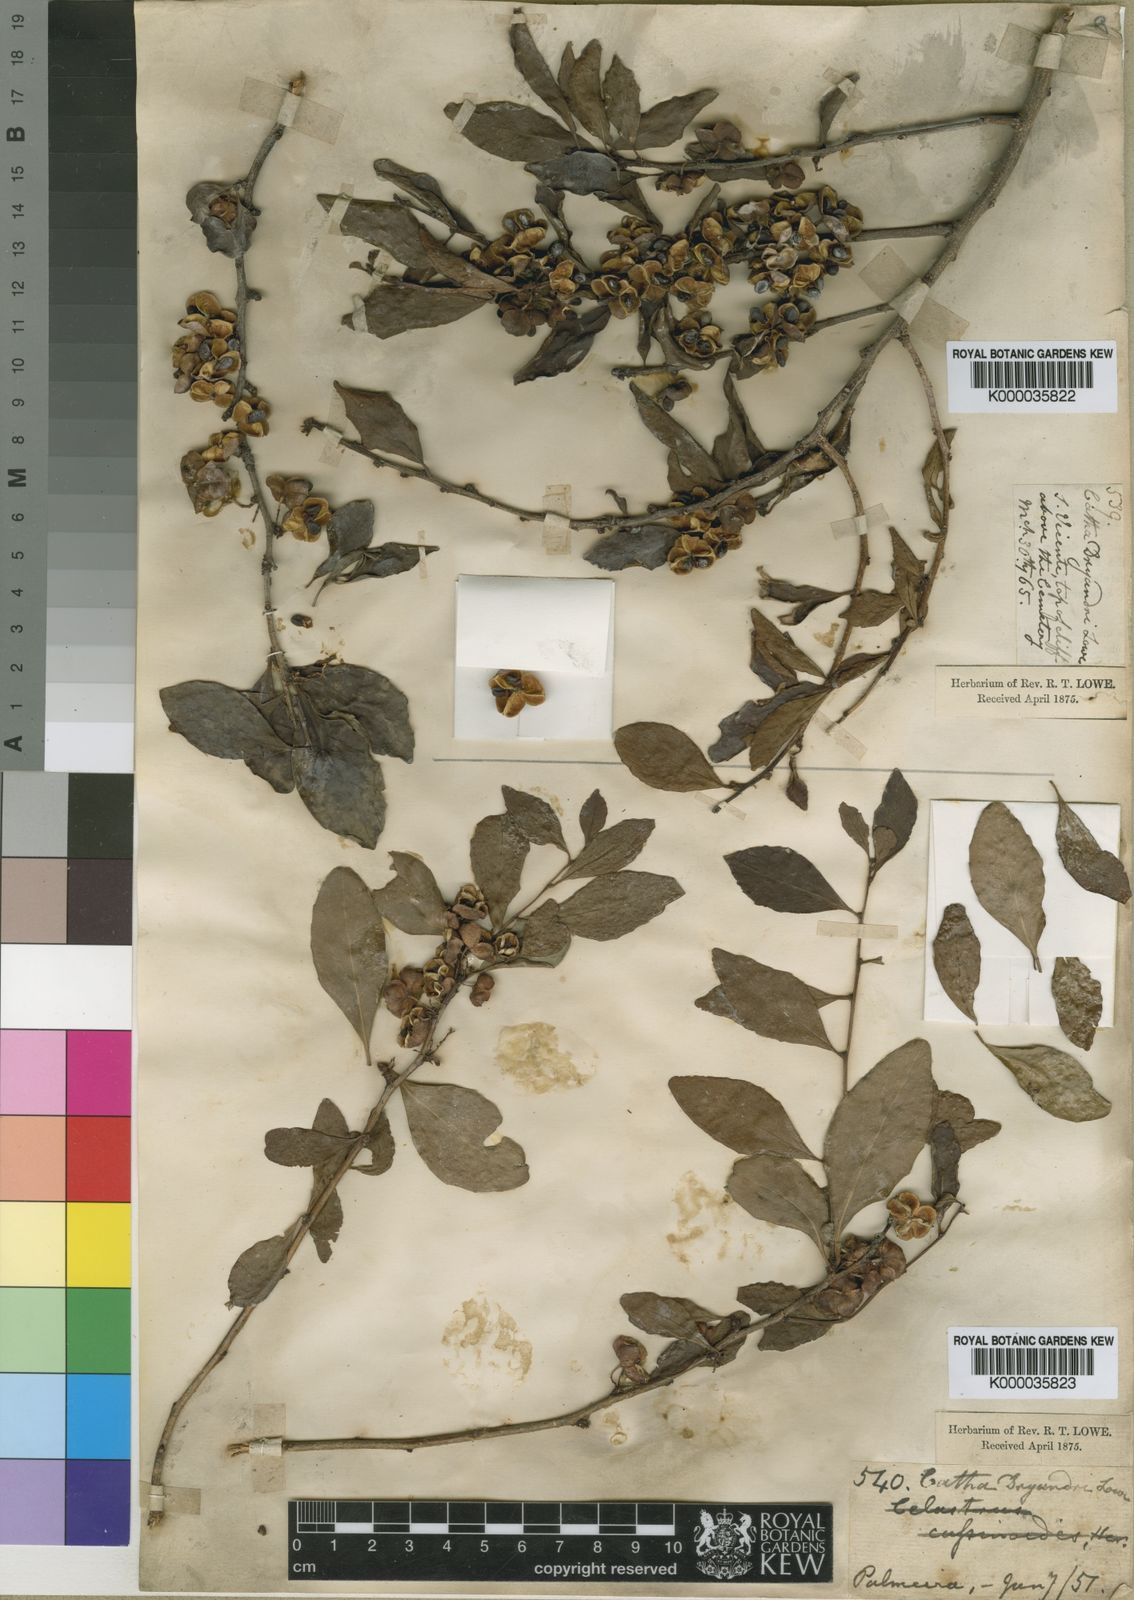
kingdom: Plantae
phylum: Tracheophyta
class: Magnoliopsida
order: Celastrales
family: Celastraceae
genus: Gymnosporia
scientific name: Gymnosporia
